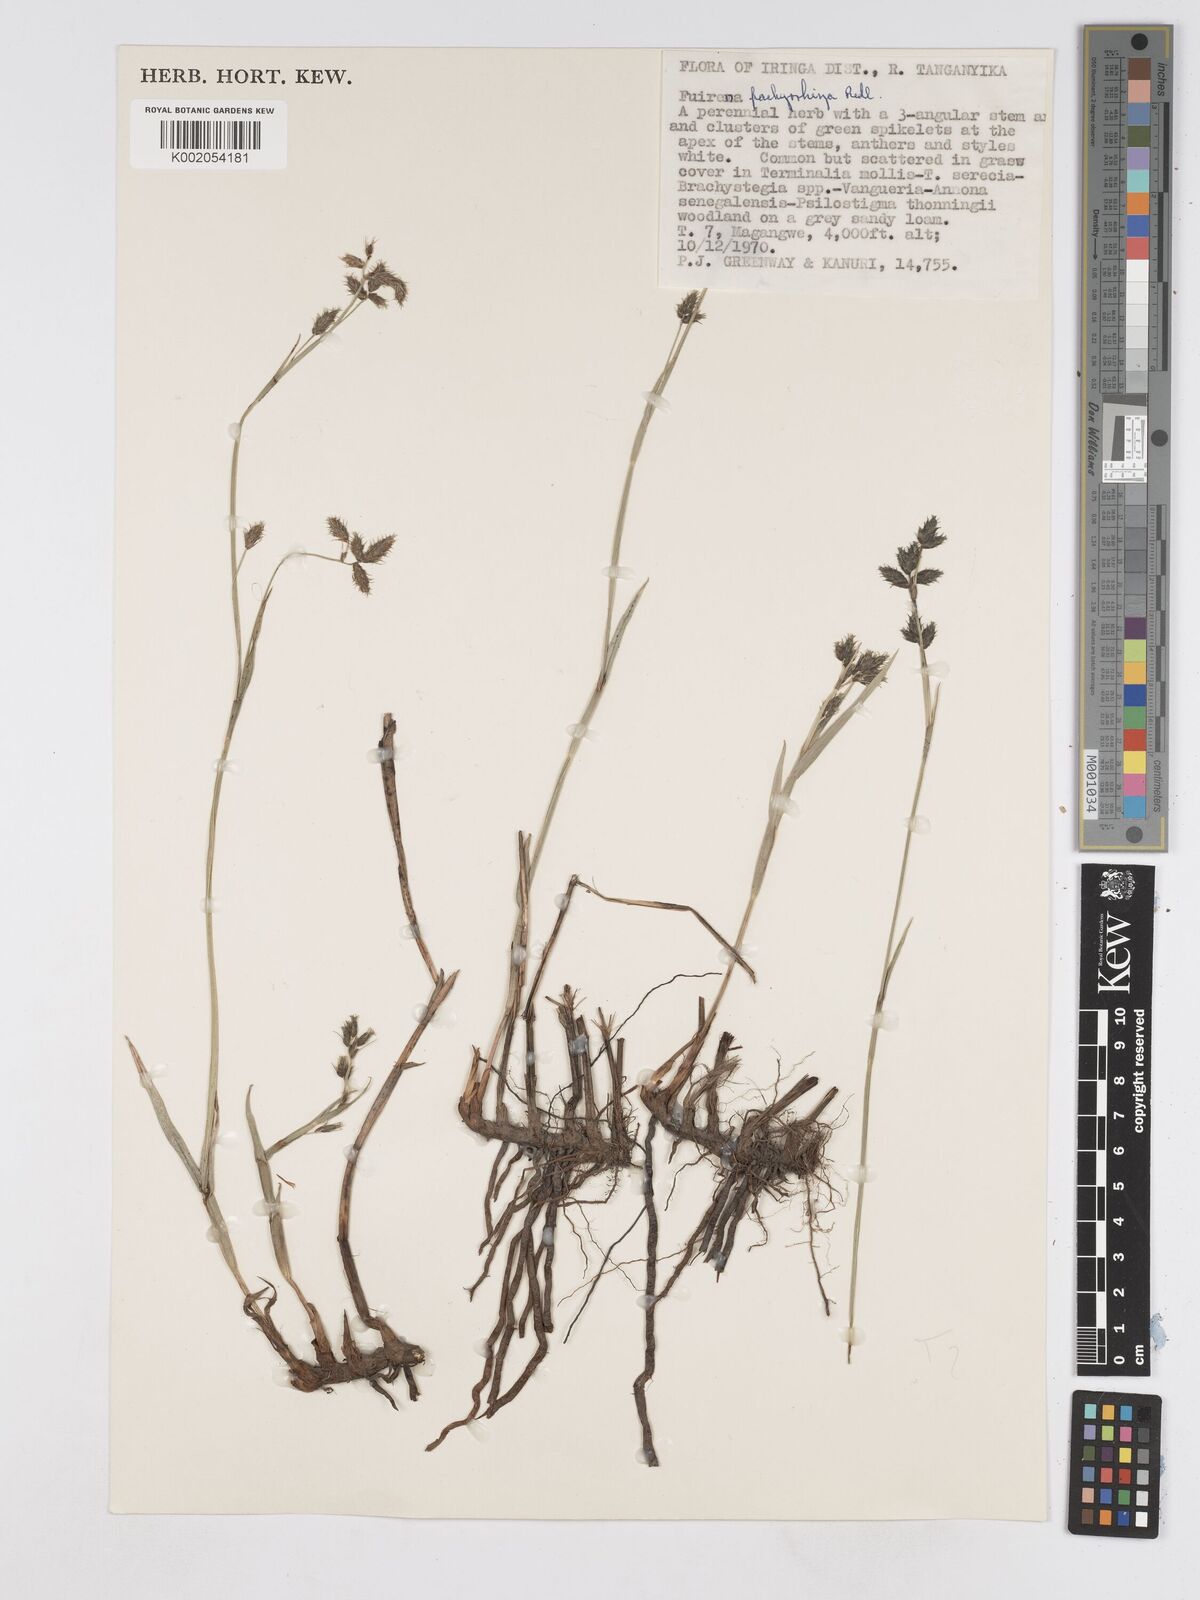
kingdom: Plantae
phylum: Tracheophyta
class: Liliopsida
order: Poales
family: Cyperaceae
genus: Fuirena
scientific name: Fuirena pachyrrhiza
